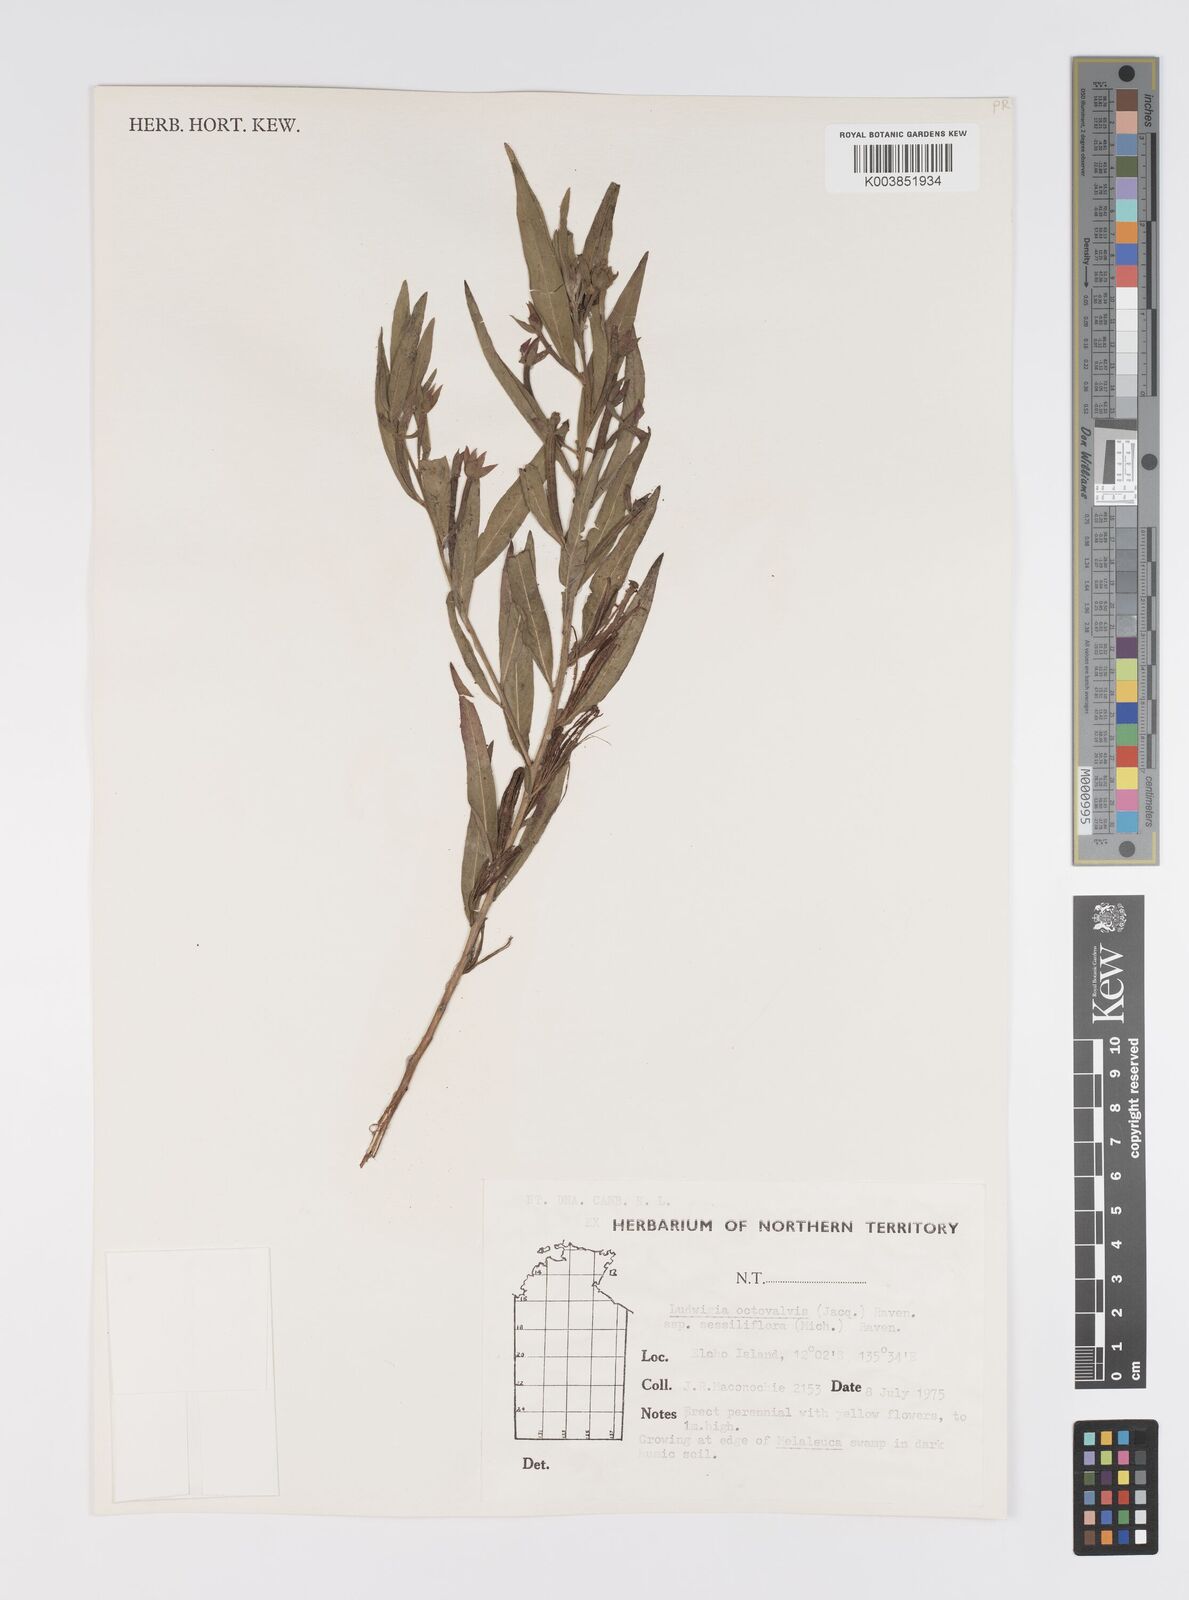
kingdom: Plantae
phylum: Tracheophyta
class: Magnoliopsida
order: Myrtales
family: Onagraceae
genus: Ludwigia
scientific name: Ludwigia octovalvis
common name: Water-primrose
